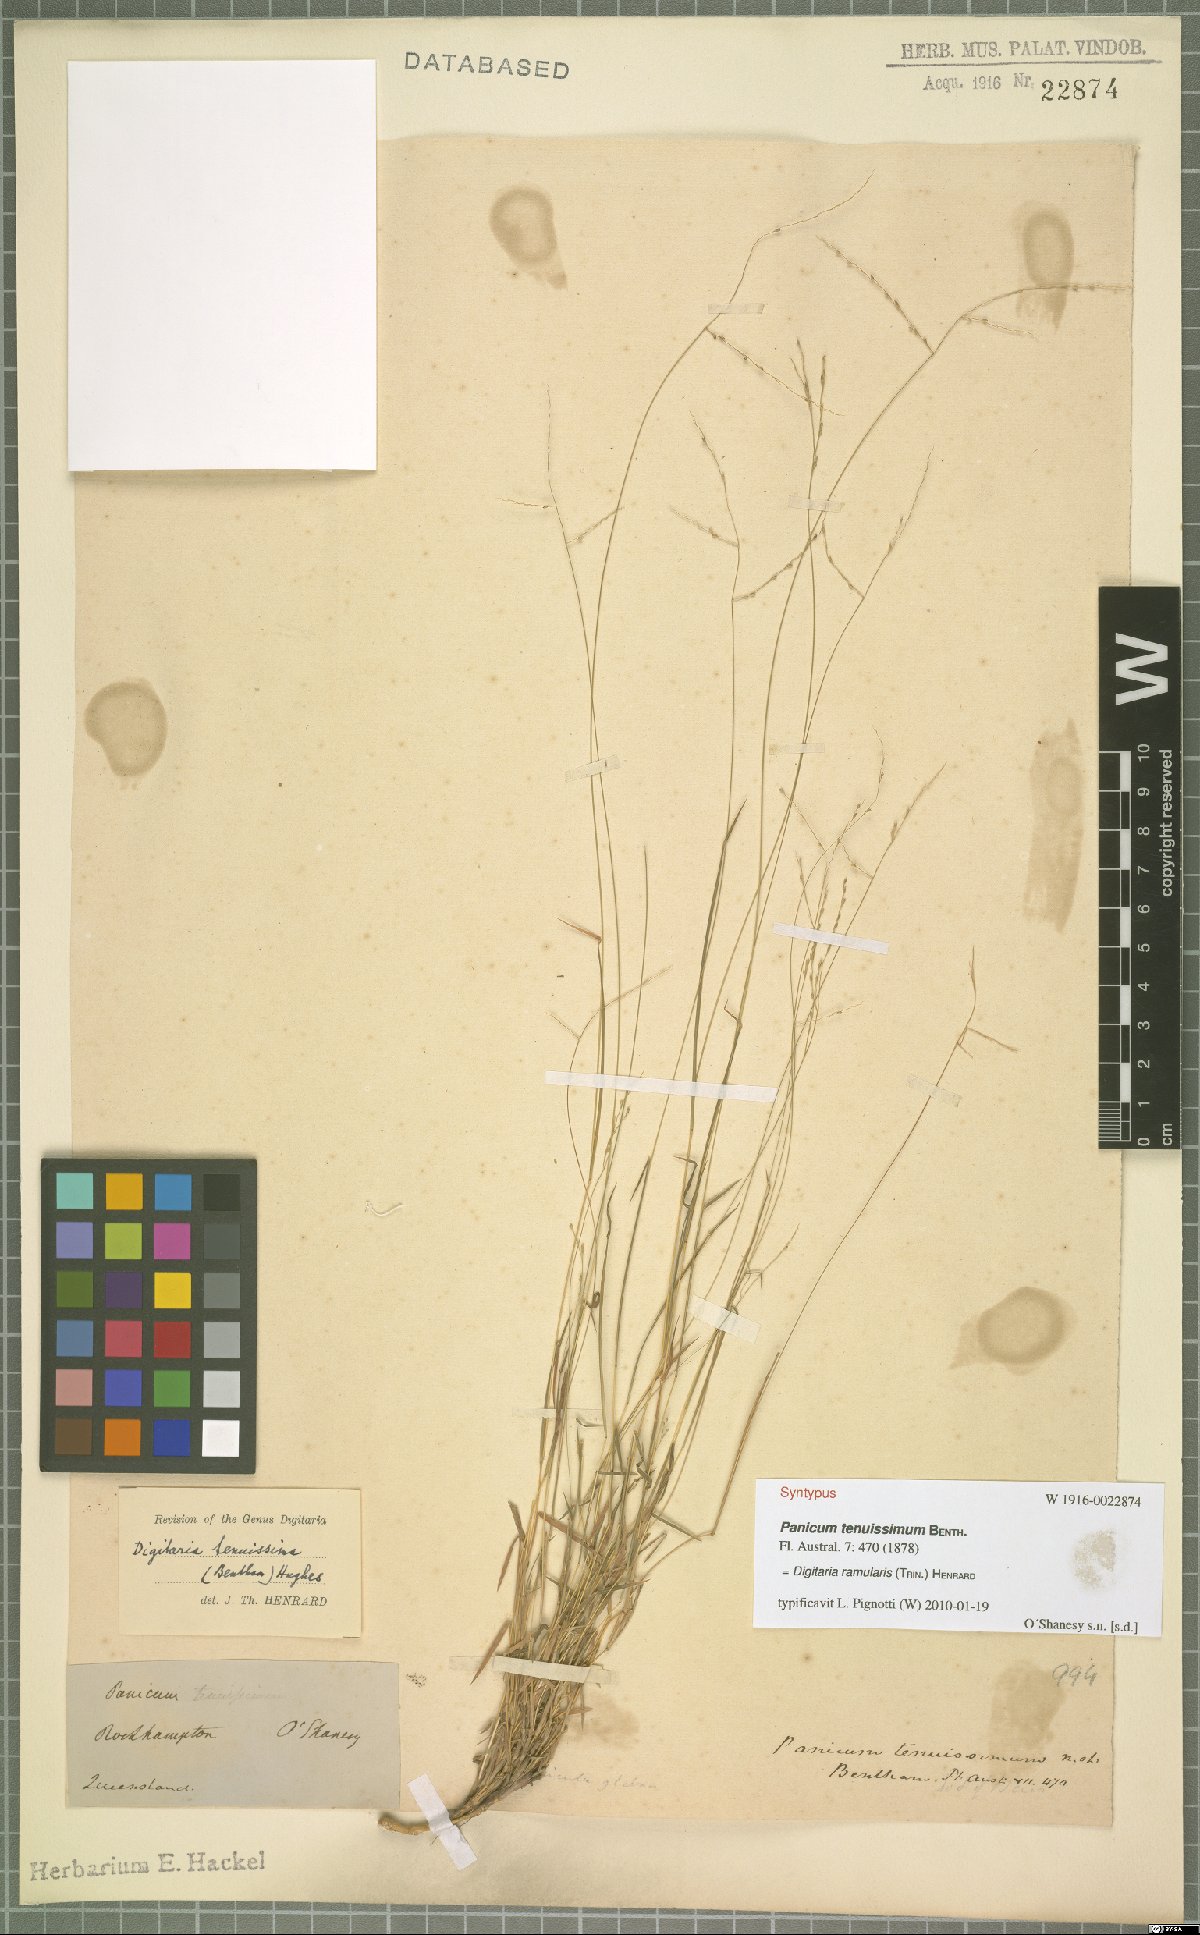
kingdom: Plantae
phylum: Tracheophyta
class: Liliopsida
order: Poales
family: Poaceae
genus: Digitaria
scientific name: Digitaria ramularis
